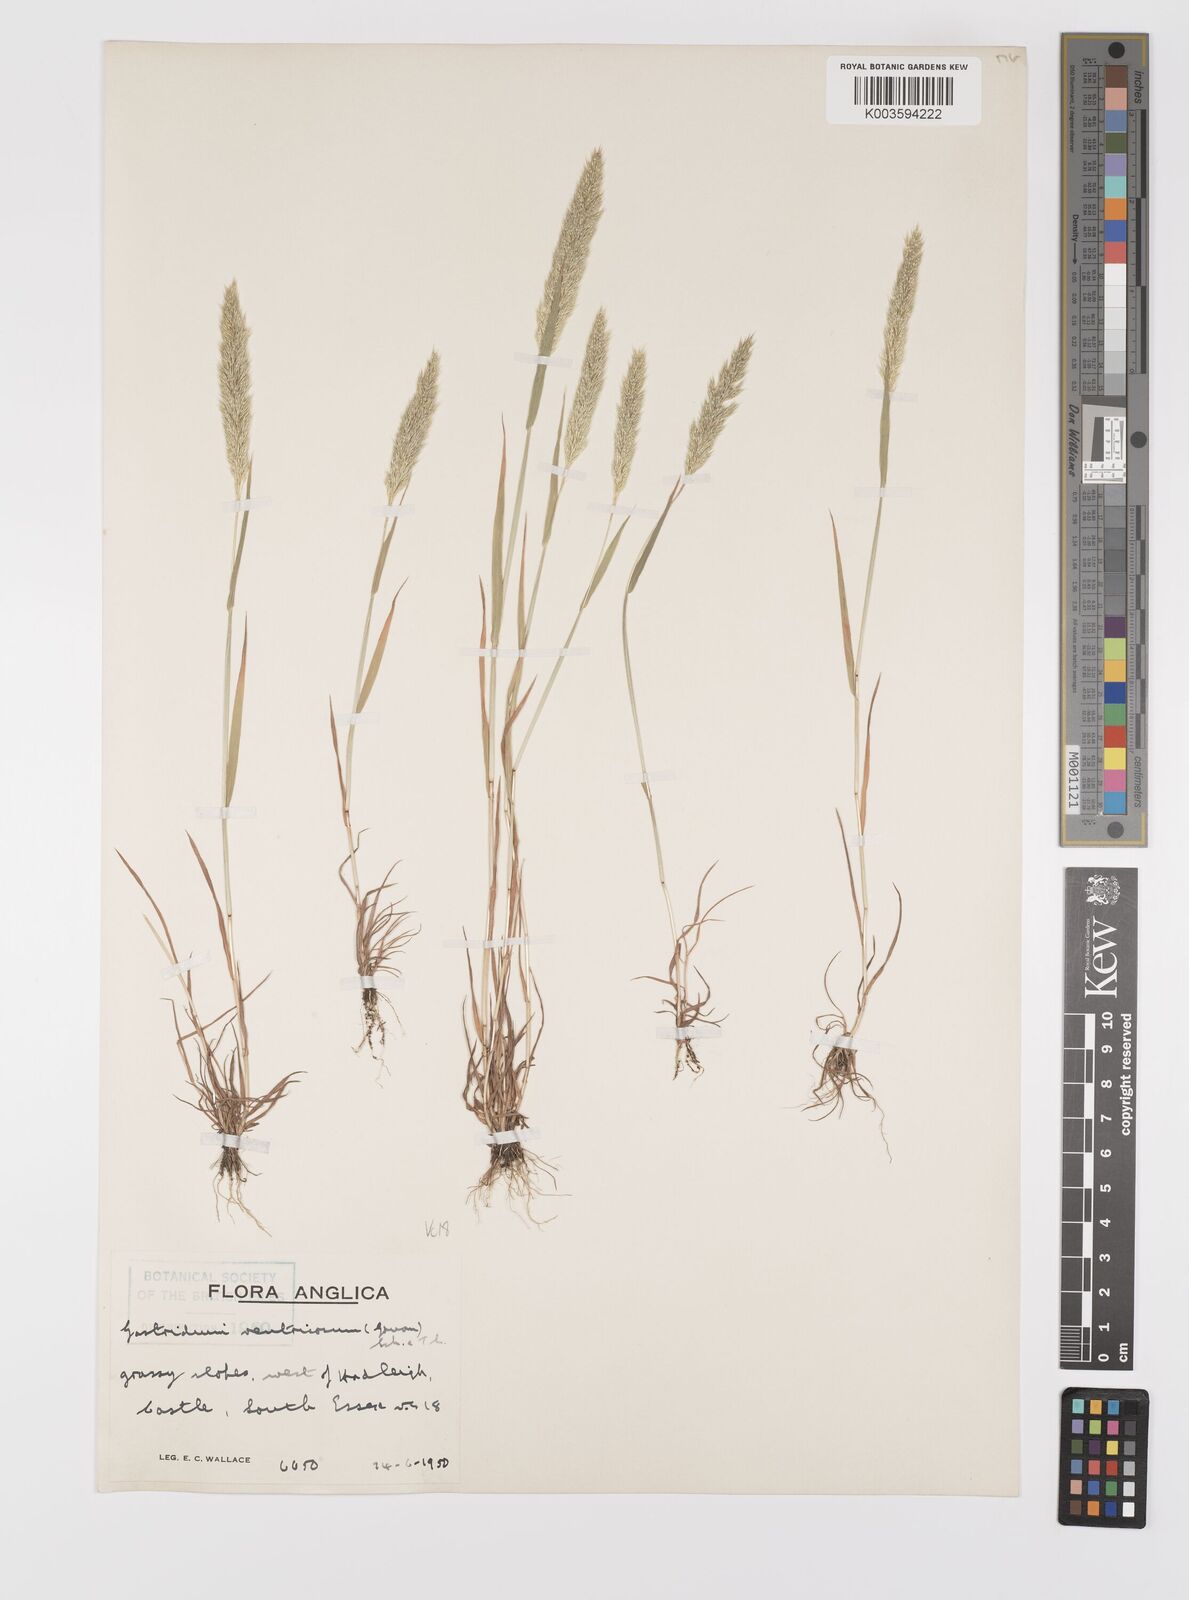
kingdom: Plantae
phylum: Tracheophyta
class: Liliopsida
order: Poales
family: Poaceae
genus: Gastridium
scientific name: Gastridium ventricosum
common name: Nit-grass
